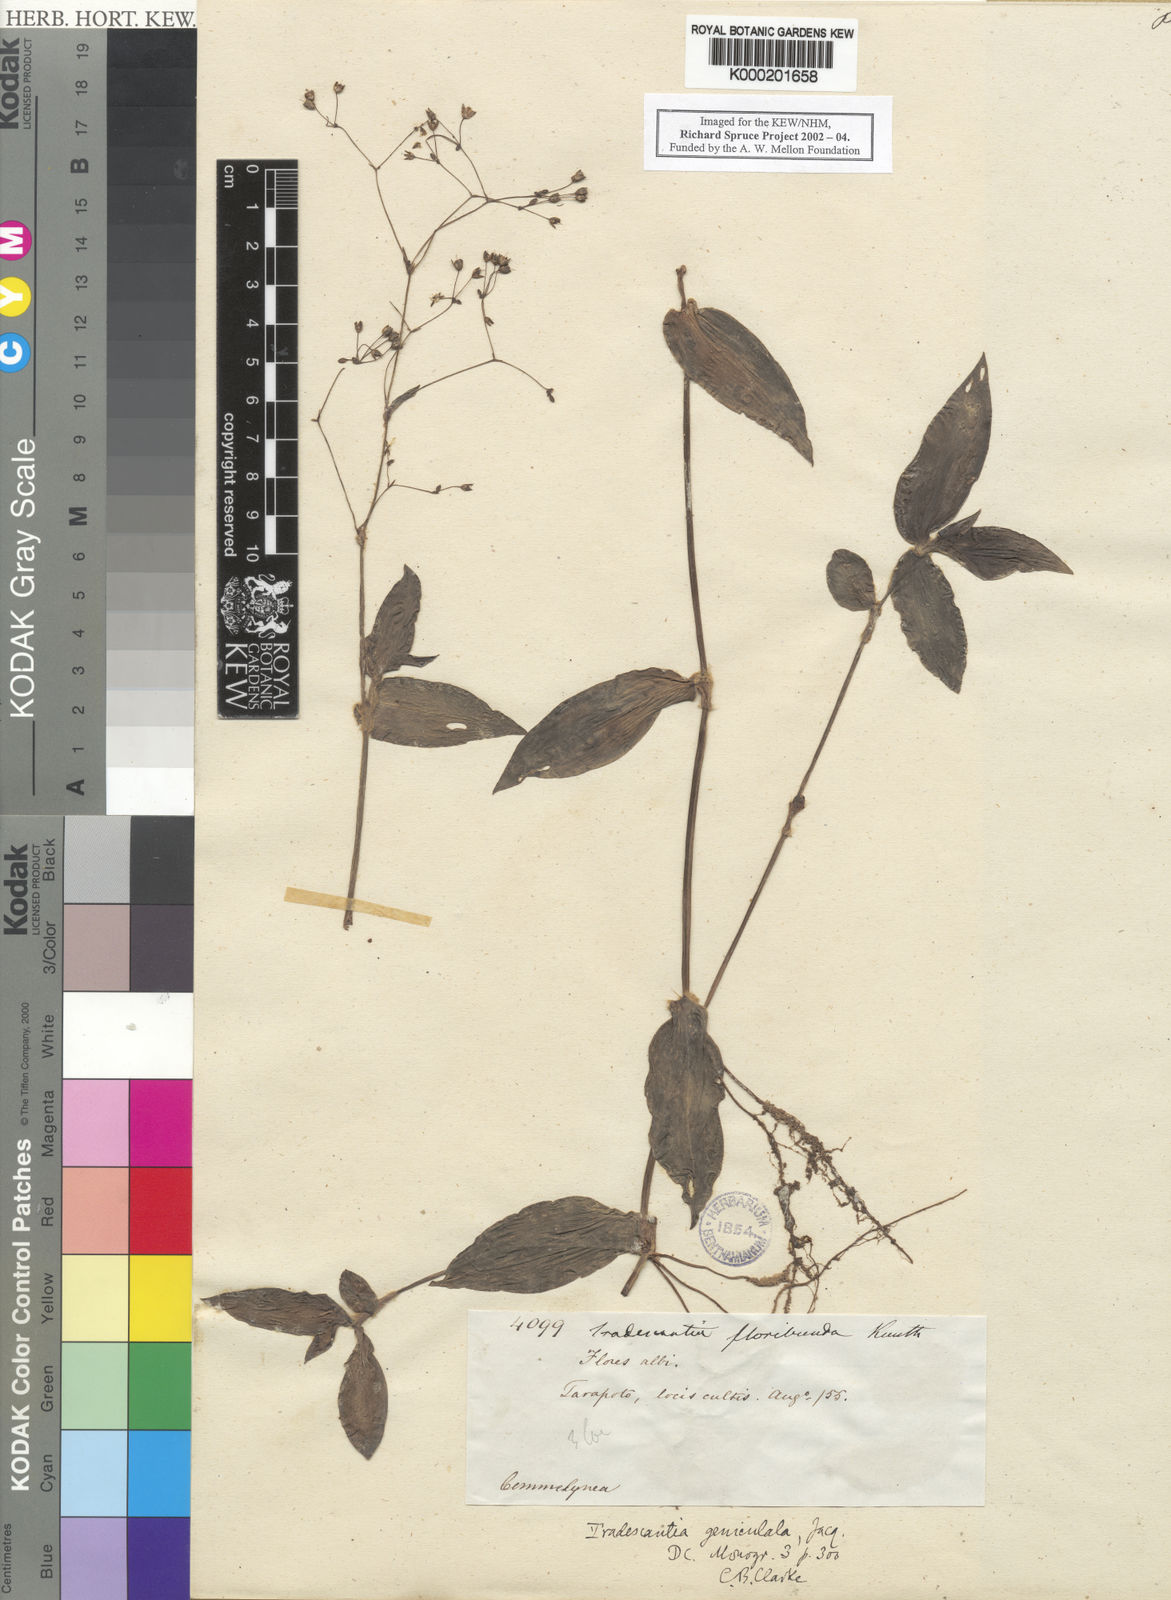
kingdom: Plantae
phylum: Tracheophyta
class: Liliopsida
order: Commelinales
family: Commelinaceae
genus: Gibasis
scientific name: Gibasis geniculata
